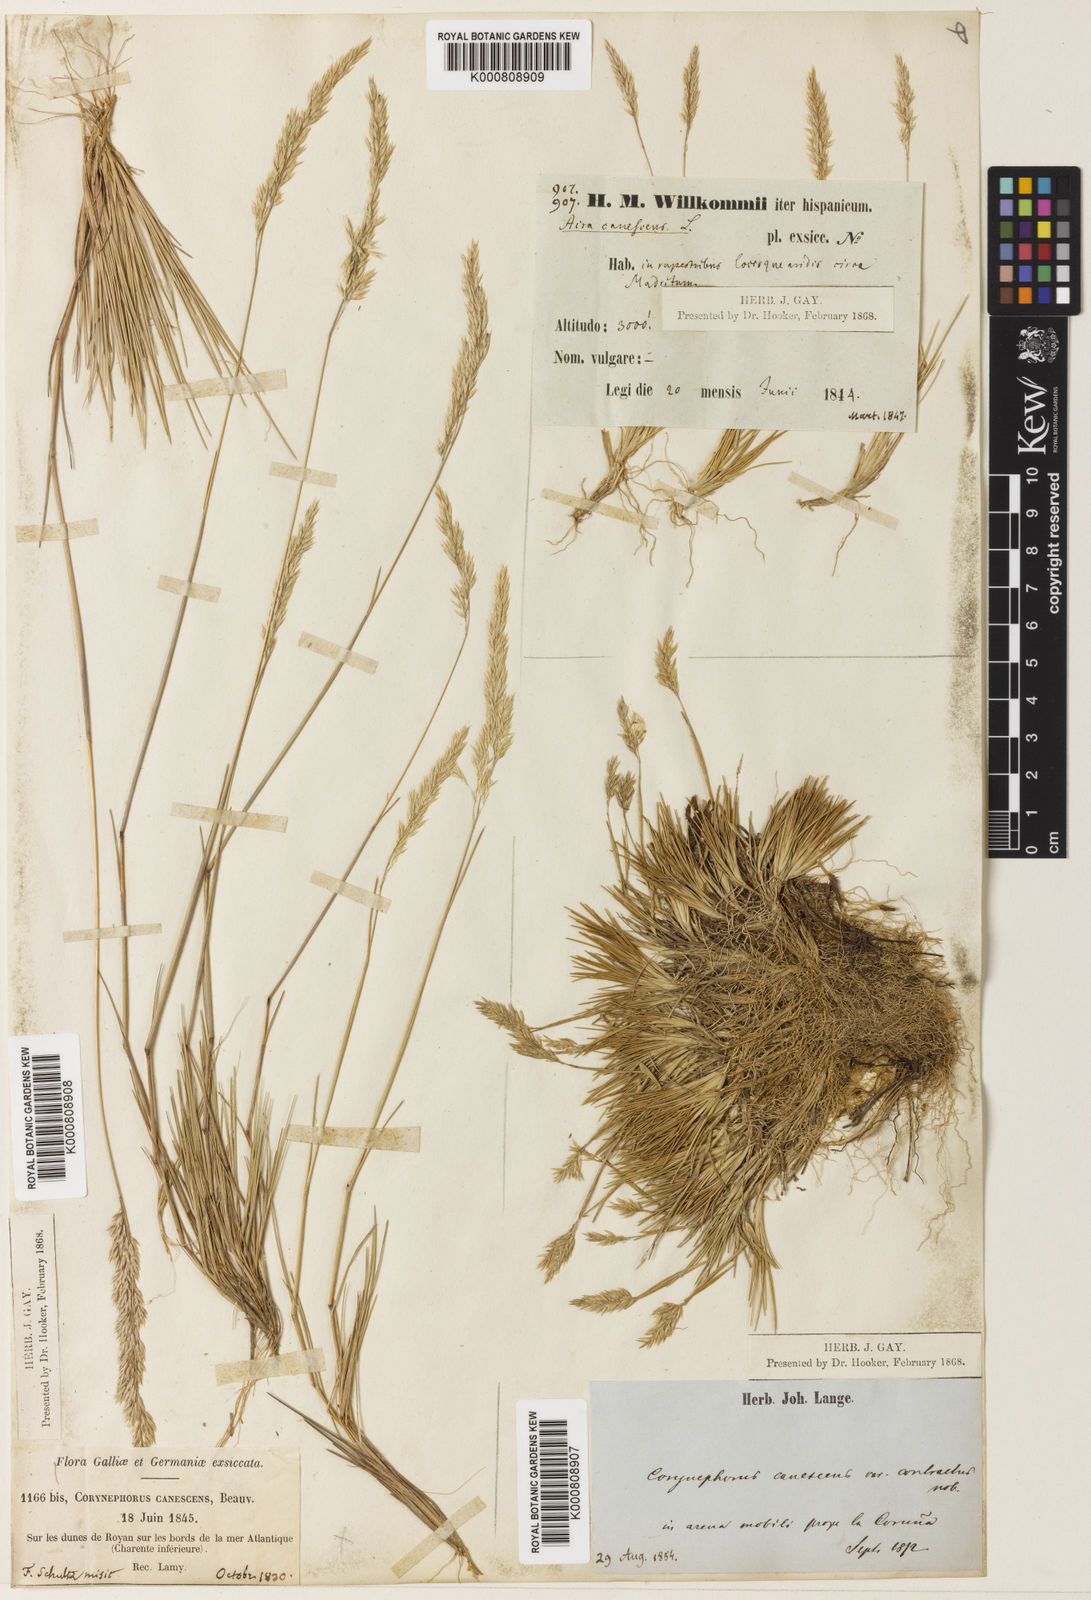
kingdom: Plantae
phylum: Tracheophyta
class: Liliopsida
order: Poales
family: Poaceae
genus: Corynephorus
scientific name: Corynephorus canescens
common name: Grey hair-grass
